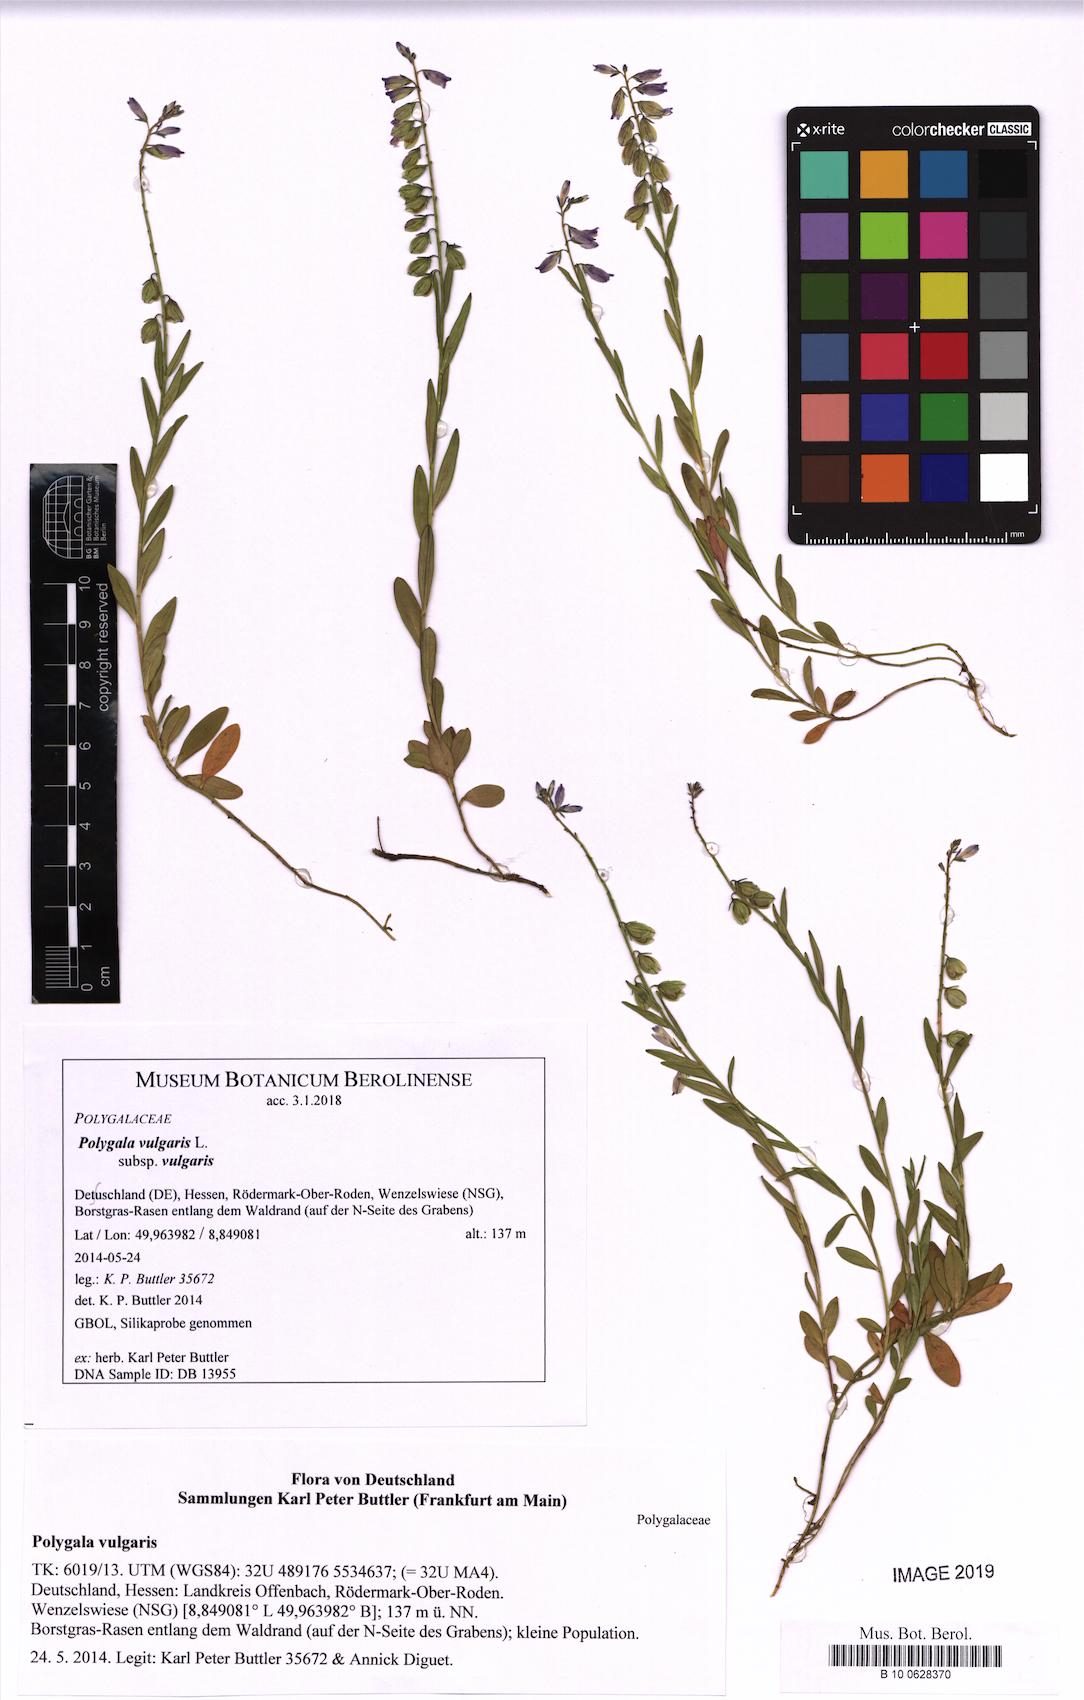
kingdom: Plantae
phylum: Tracheophyta
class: Magnoliopsida
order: Fabales
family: Polygalaceae
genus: Polygala
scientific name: Polygala vulgaris
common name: Common milkwort
